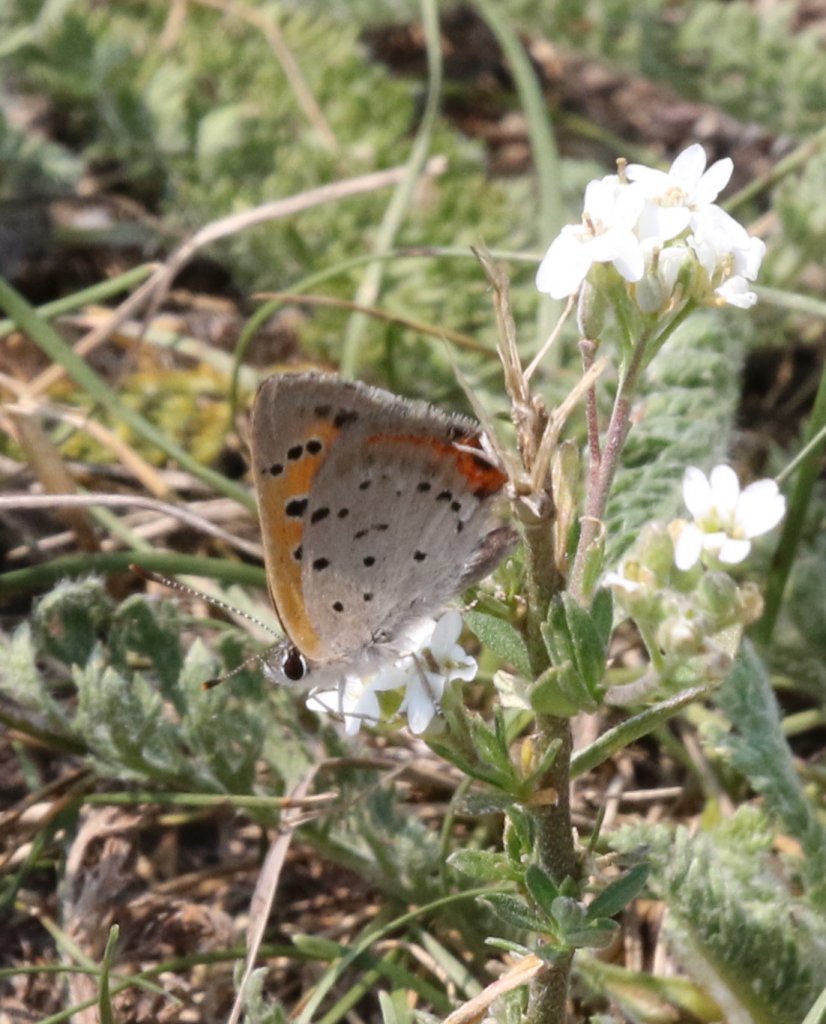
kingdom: Animalia
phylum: Arthropoda
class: Insecta
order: Lepidoptera
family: Lycaenidae
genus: Lycaena
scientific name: Lycaena phlaeas
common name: American Copper
